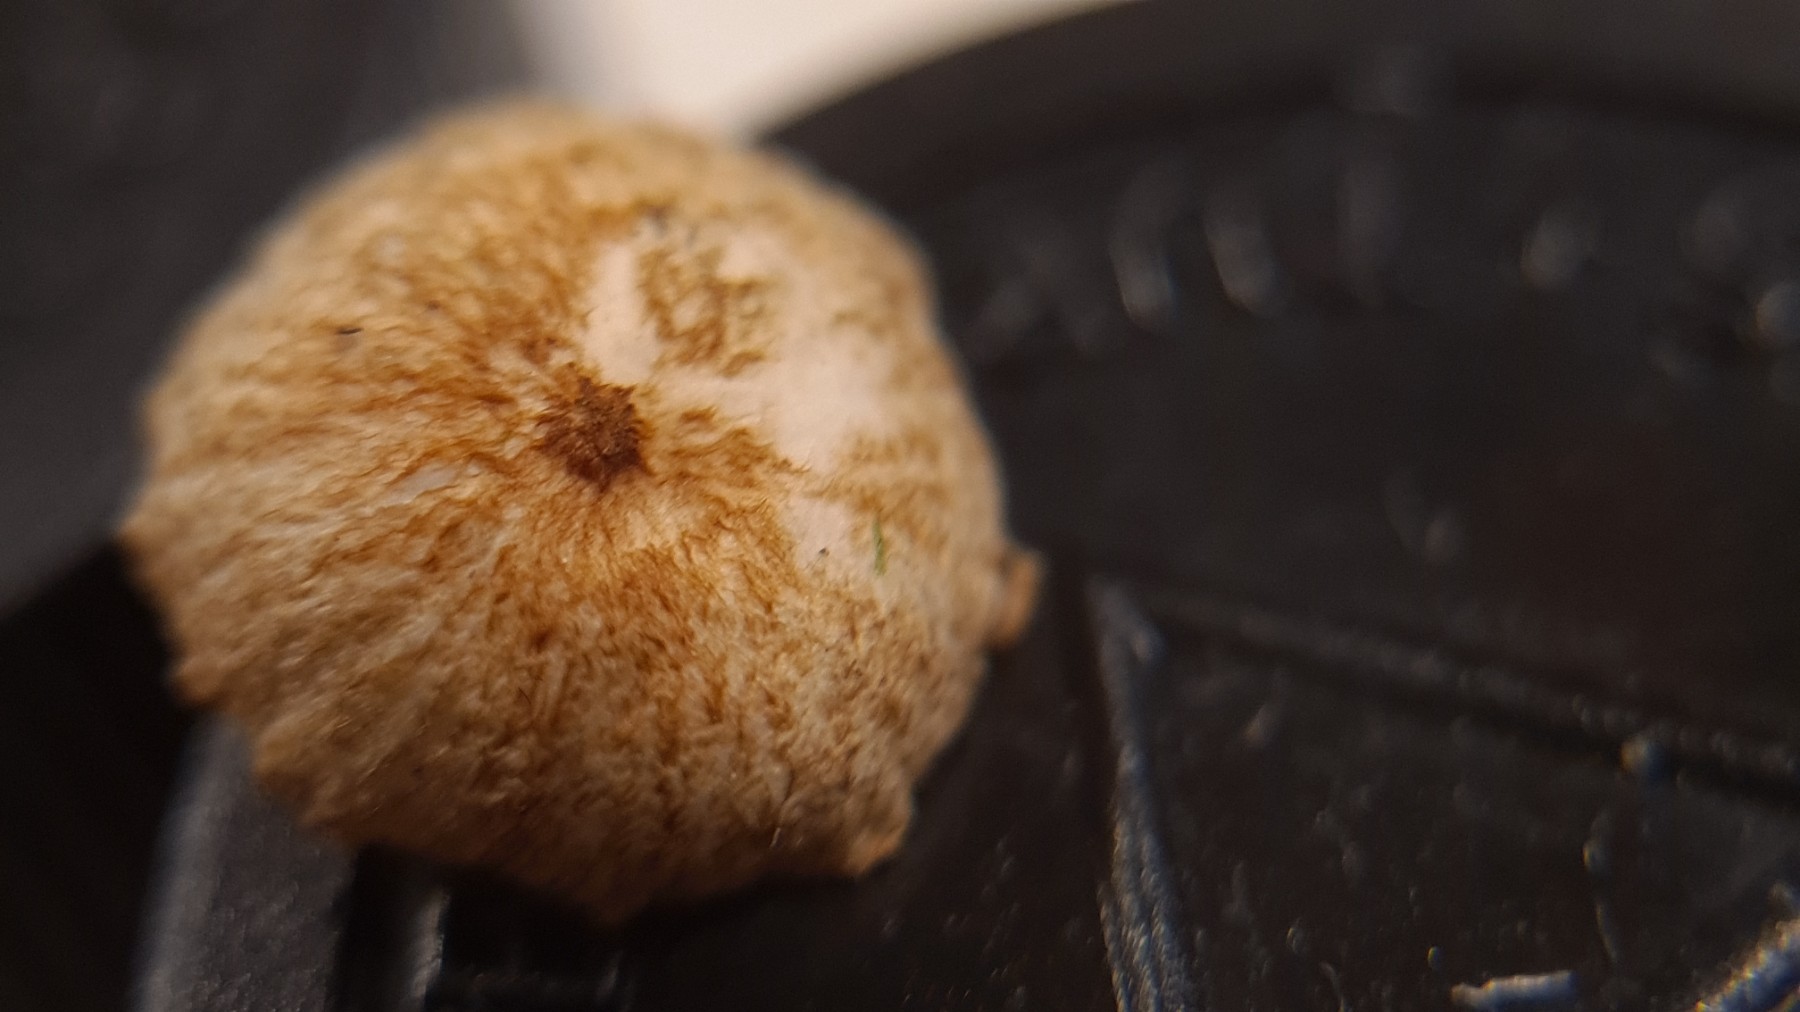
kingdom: Fungi
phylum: Basidiomycota
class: Agaricomycetes
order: Agaricales
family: Marasmiaceae
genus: Crinipellis
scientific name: Crinipellis scabella
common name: børstefod
